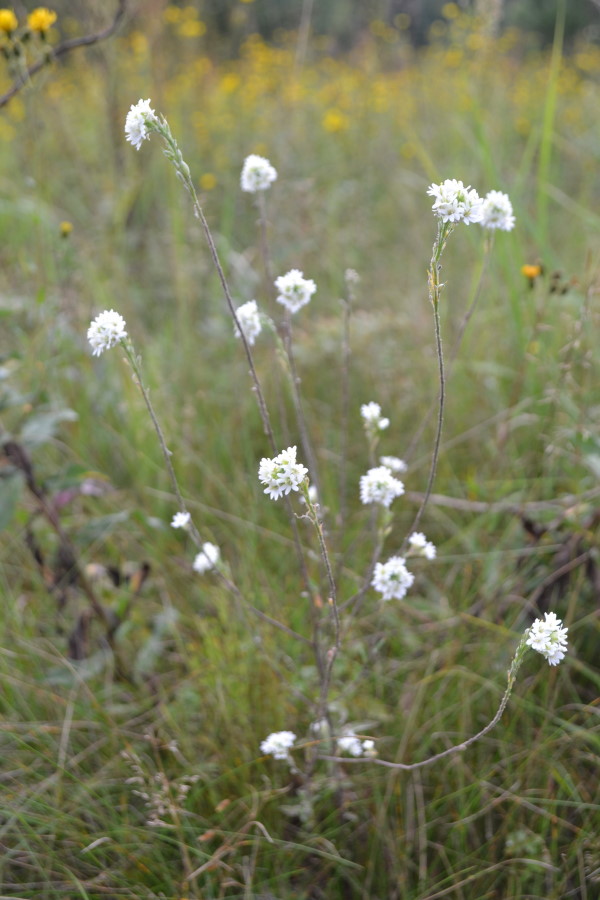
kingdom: Plantae
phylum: Tracheophyta
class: Magnoliopsida
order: Brassicales
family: Brassicaceae
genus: Berteroa
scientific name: Berteroa incana
